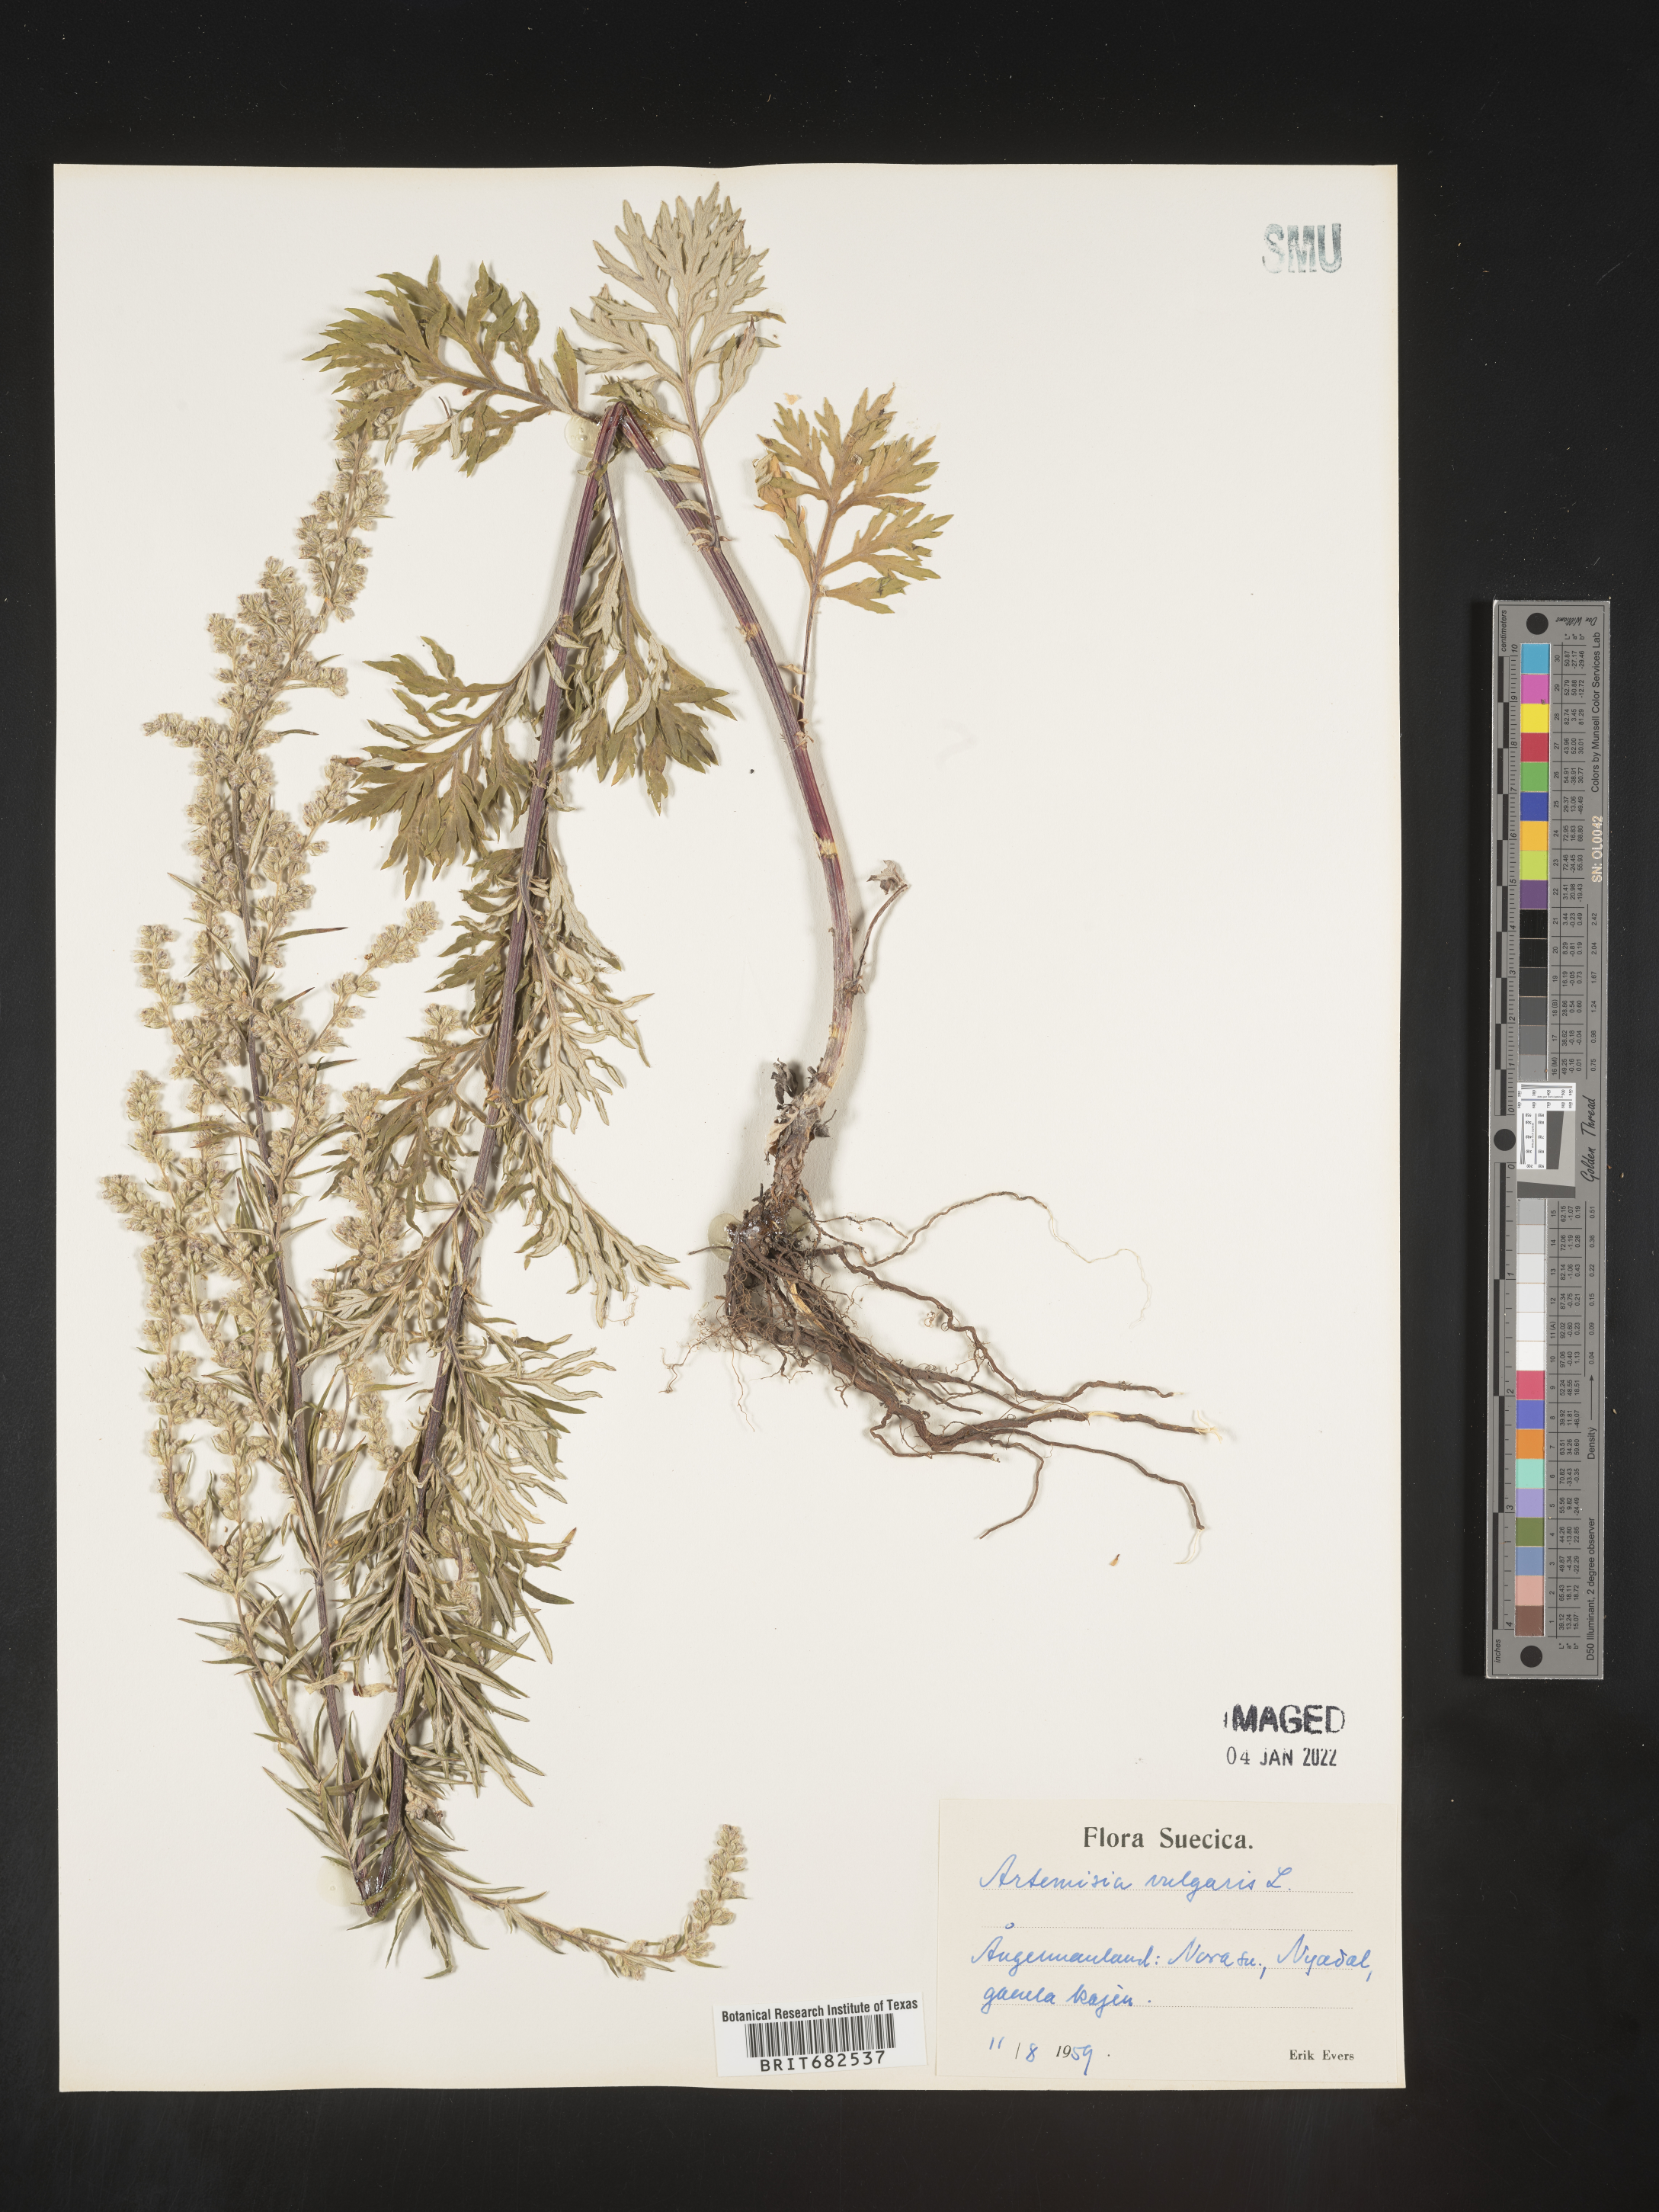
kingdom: Plantae
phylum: Tracheophyta
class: Magnoliopsida
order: Asterales
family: Asteraceae
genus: Artemisia
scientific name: Artemisia
